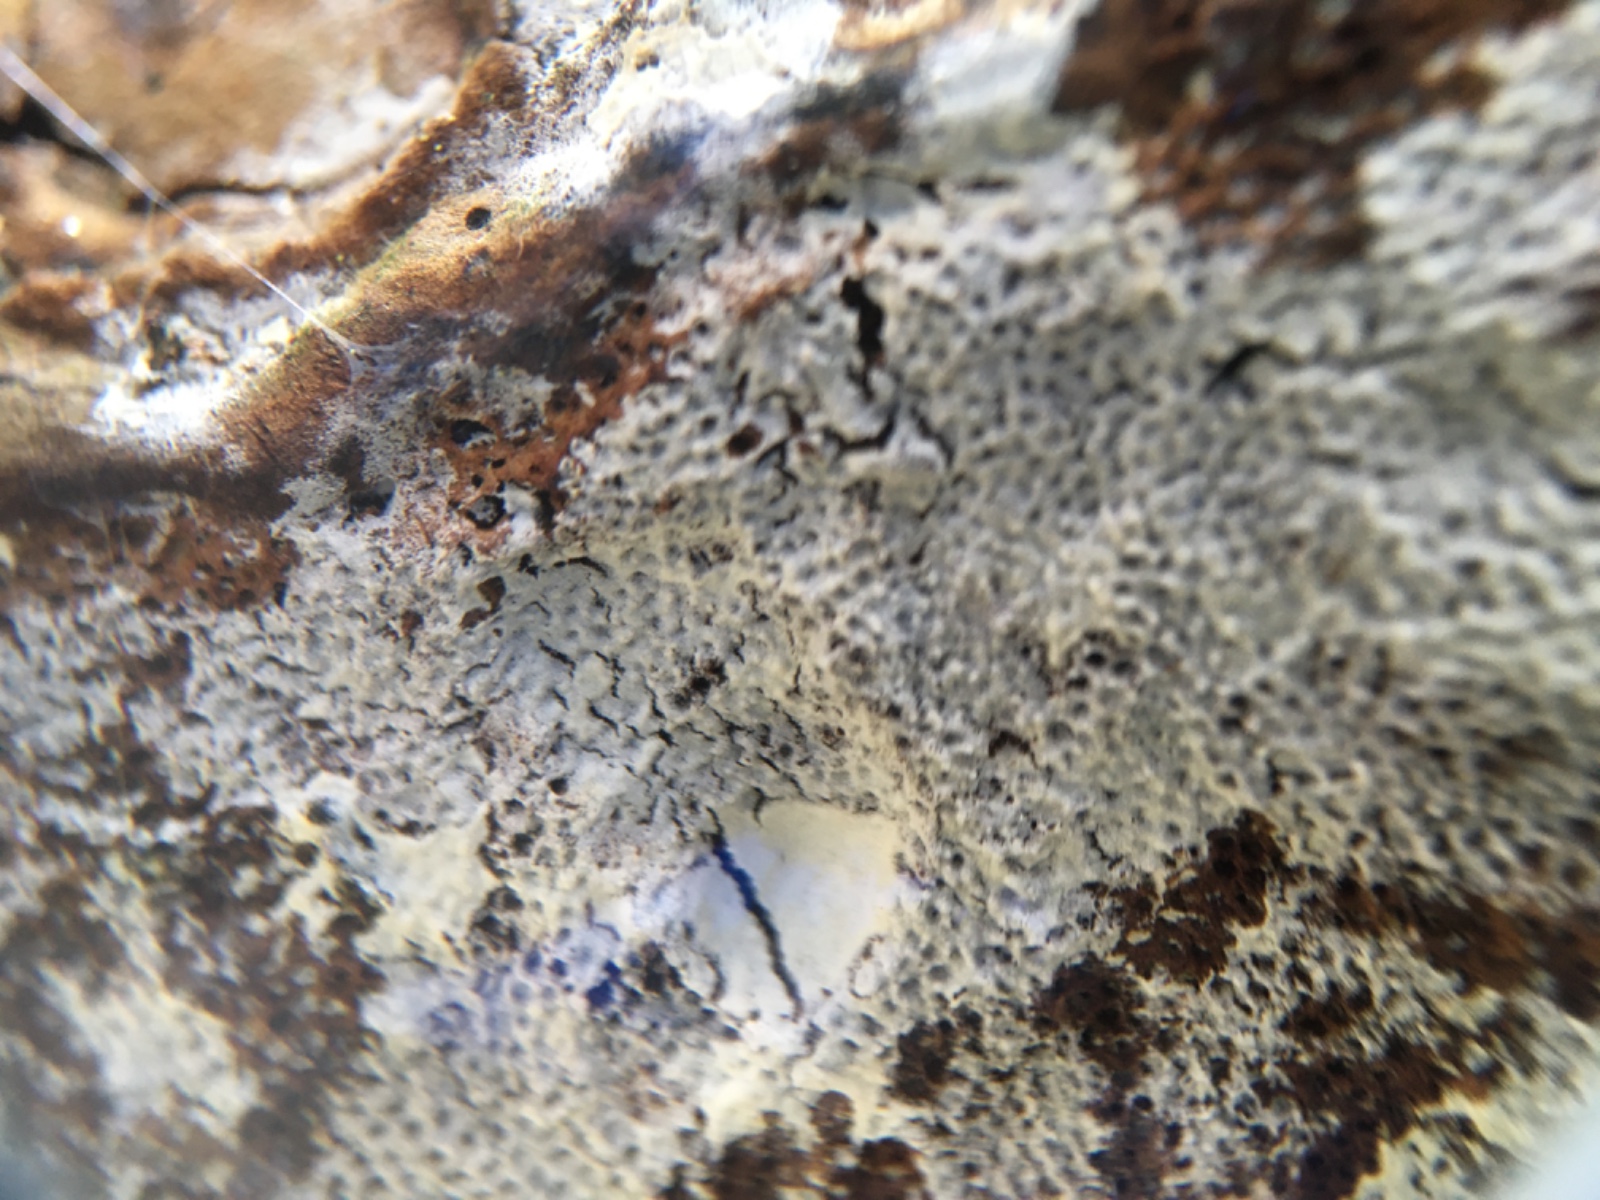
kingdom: Fungi
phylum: Basidiomycota
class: Agaricomycetes
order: Corticiales
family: Corticiaceae
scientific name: Corticiaceae
